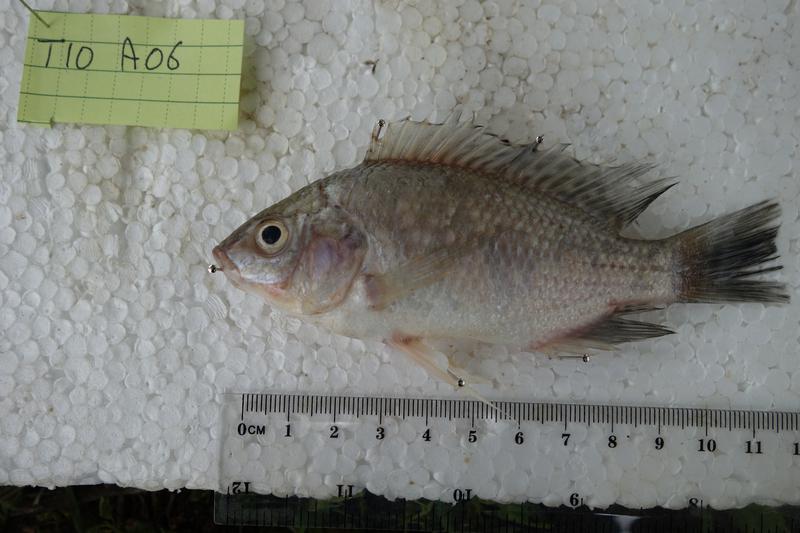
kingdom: Animalia
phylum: Chordata
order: Perciformes
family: Cichlidae
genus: Oreochromis
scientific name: Oreochromis rukwaensis
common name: Lake rukwa tilapia
